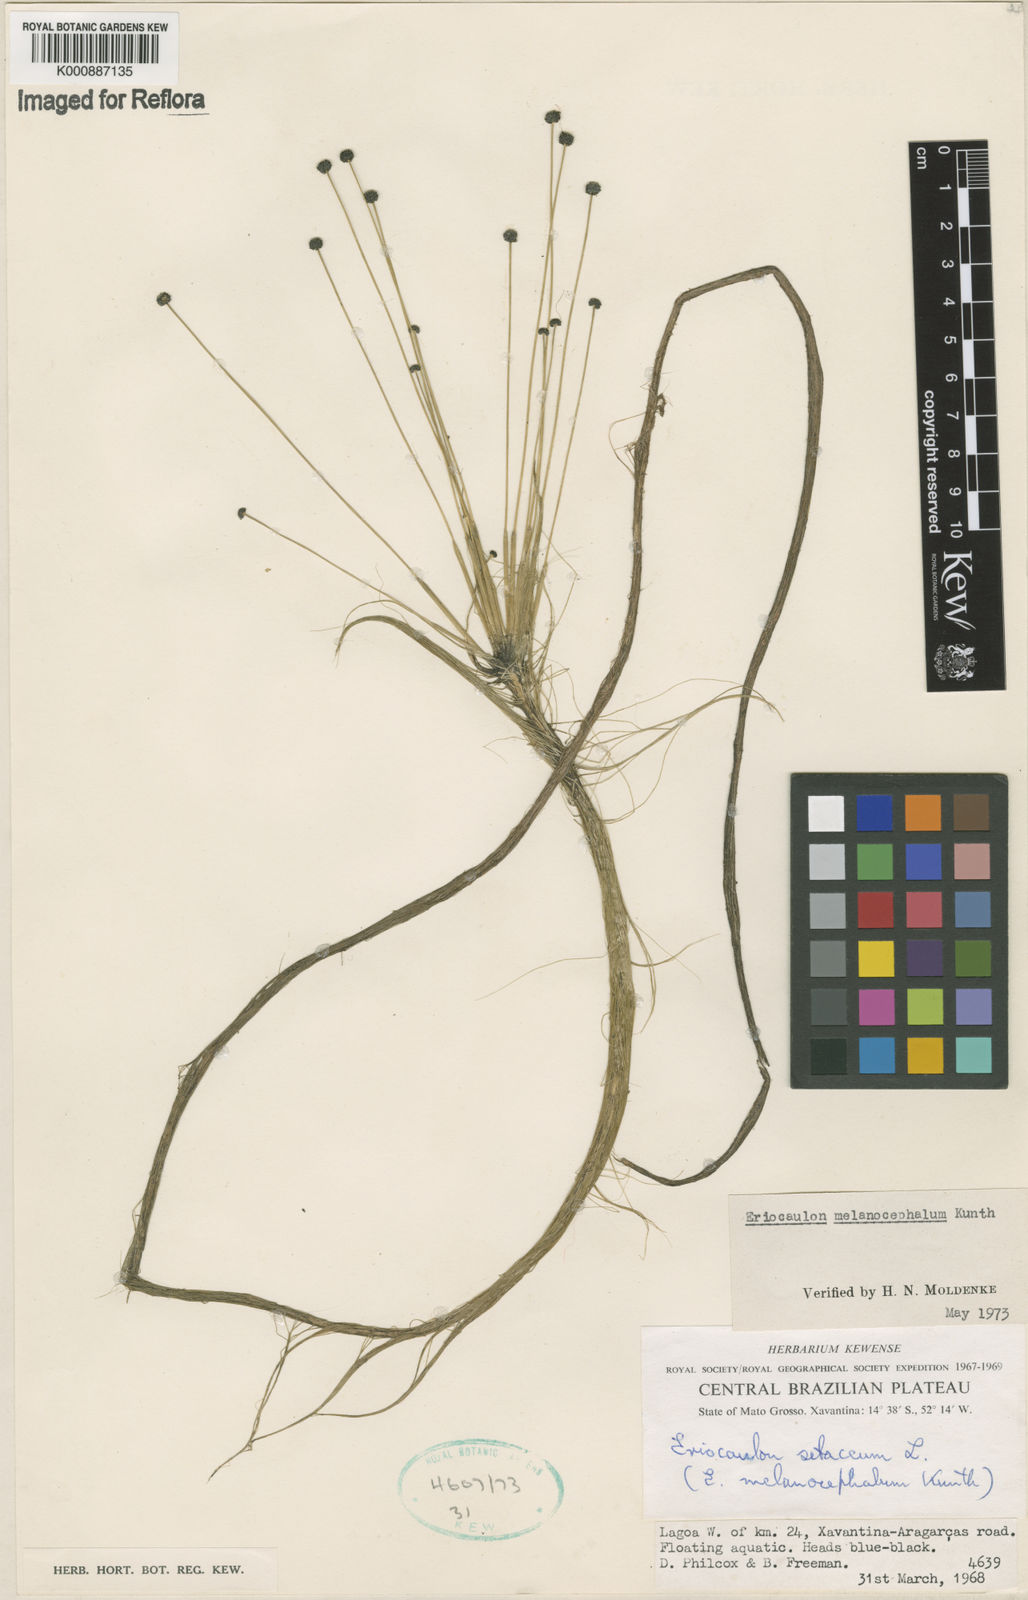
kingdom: Plantae
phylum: Tracheophyta
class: Liliopsida
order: Poales
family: Eriocaulaceae
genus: Eriocaulon
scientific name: Eriocaulon setaceum
